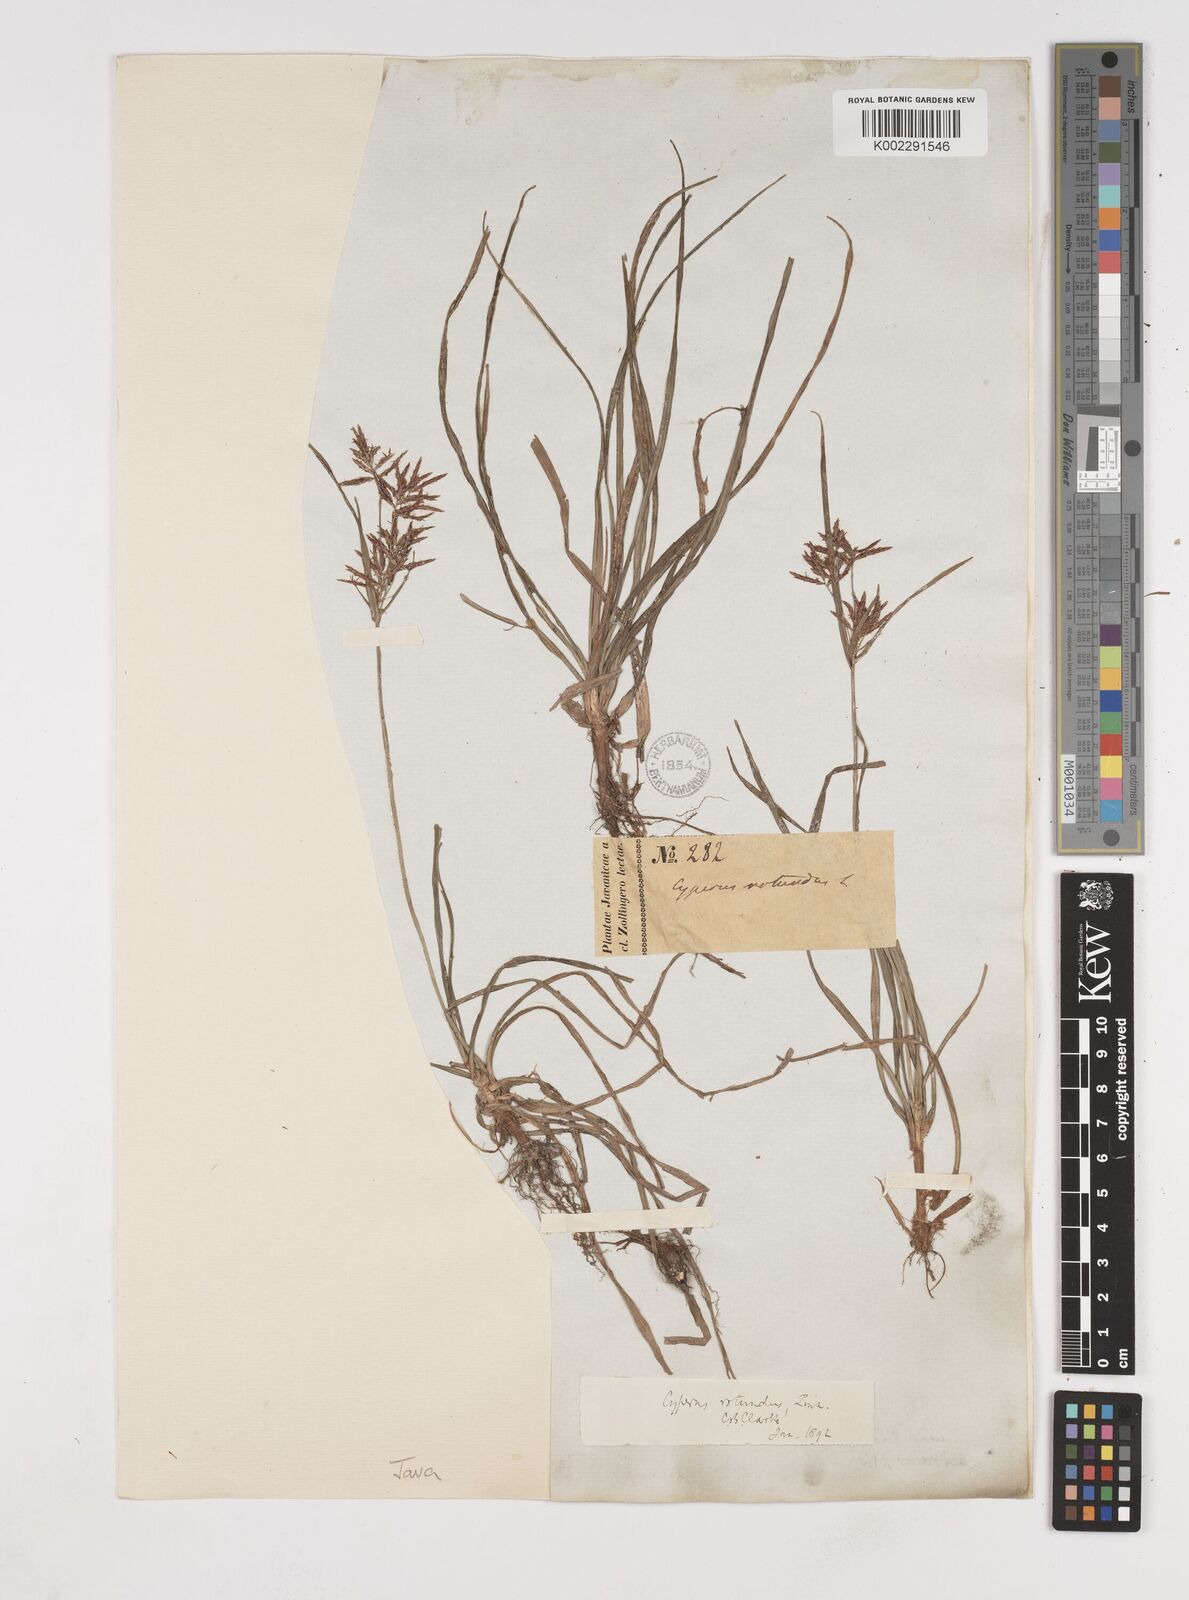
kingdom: Plantae
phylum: Tracheophyta
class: Liliopsida
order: Poales
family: Cyperaceae
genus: Cyperus
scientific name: Cyperus rotundus
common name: Nutgrass
